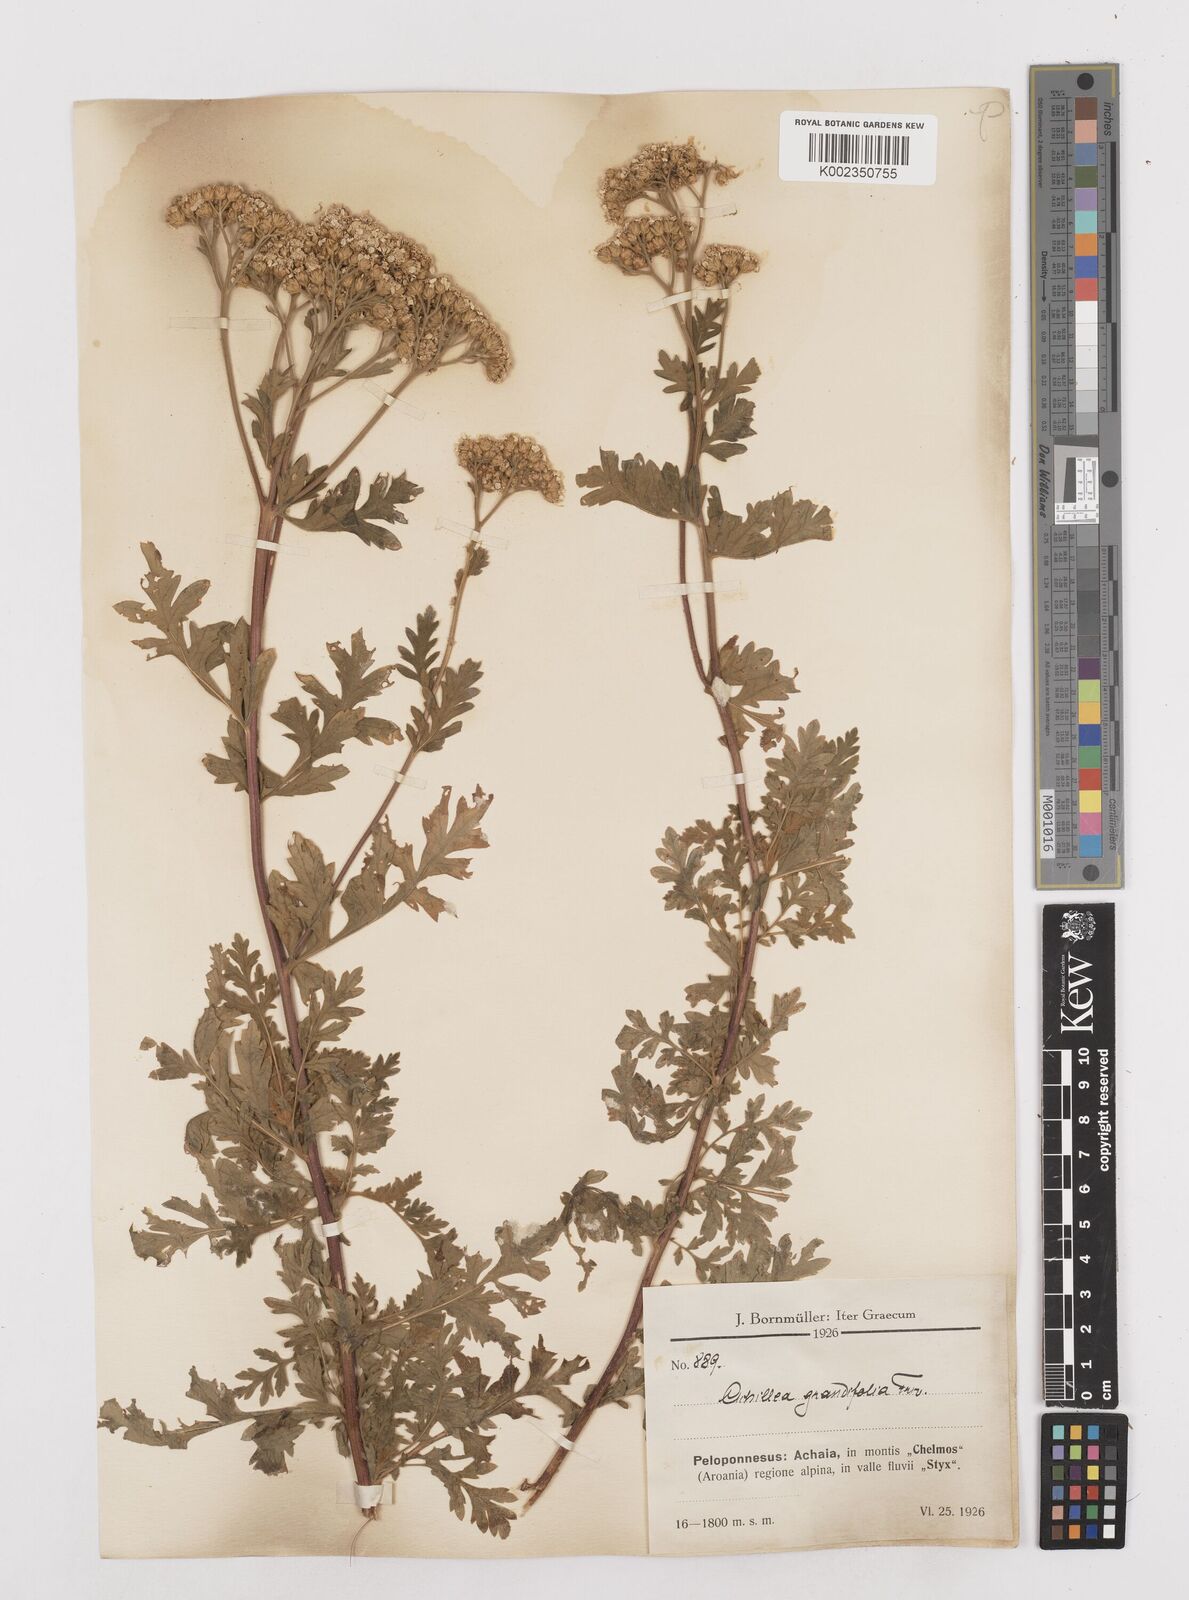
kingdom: Plantae
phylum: Tracheophyta
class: Magnoliopsida
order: Asterales
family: Asteraceae
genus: Achillea
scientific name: Achillea grandifolia
